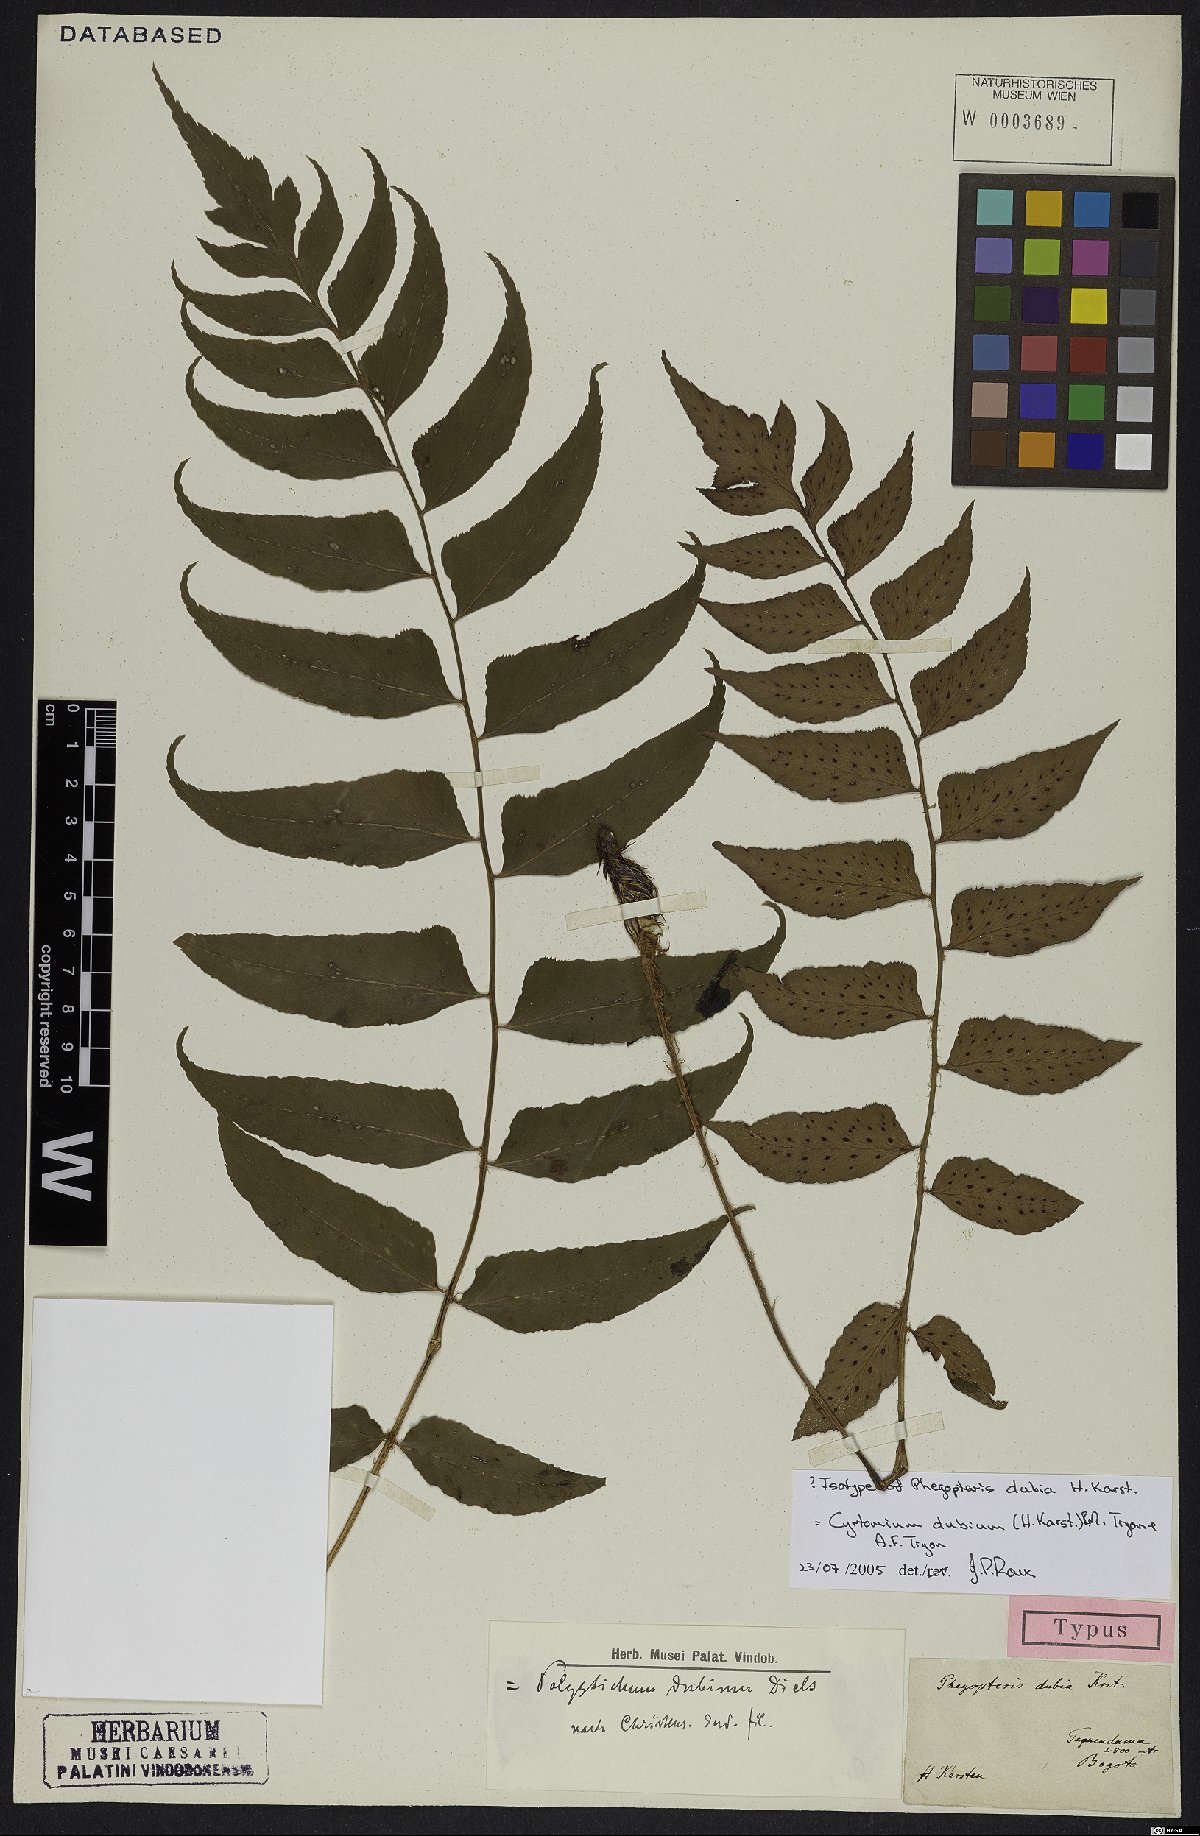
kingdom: Plantae
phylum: Tracheophyta
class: Polypodiopsida
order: Polypodiales
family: Dryopteridaceae
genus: Polystichum
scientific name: Polystichum dubium
